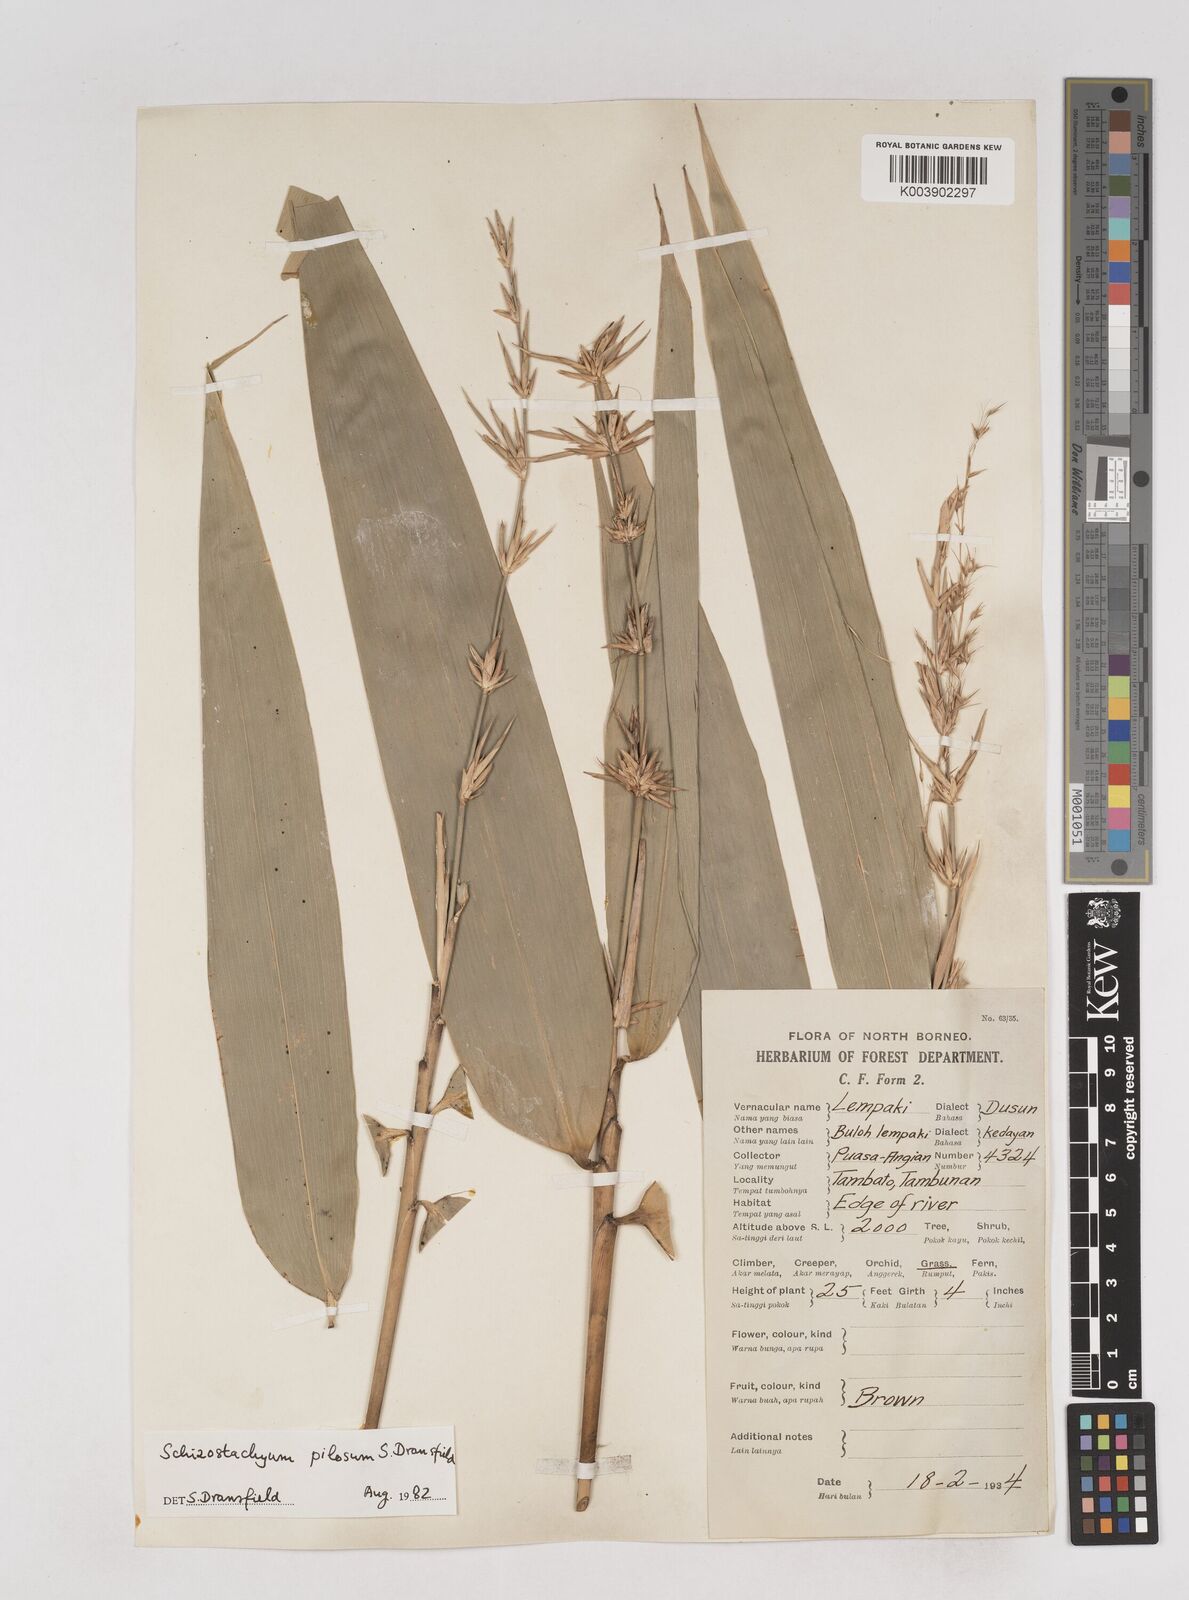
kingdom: Plantae
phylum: Tracheophyta
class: Liliopsida
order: Poales
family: Poaceae
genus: Schizostachyum
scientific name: Schizostachyum pilosum
